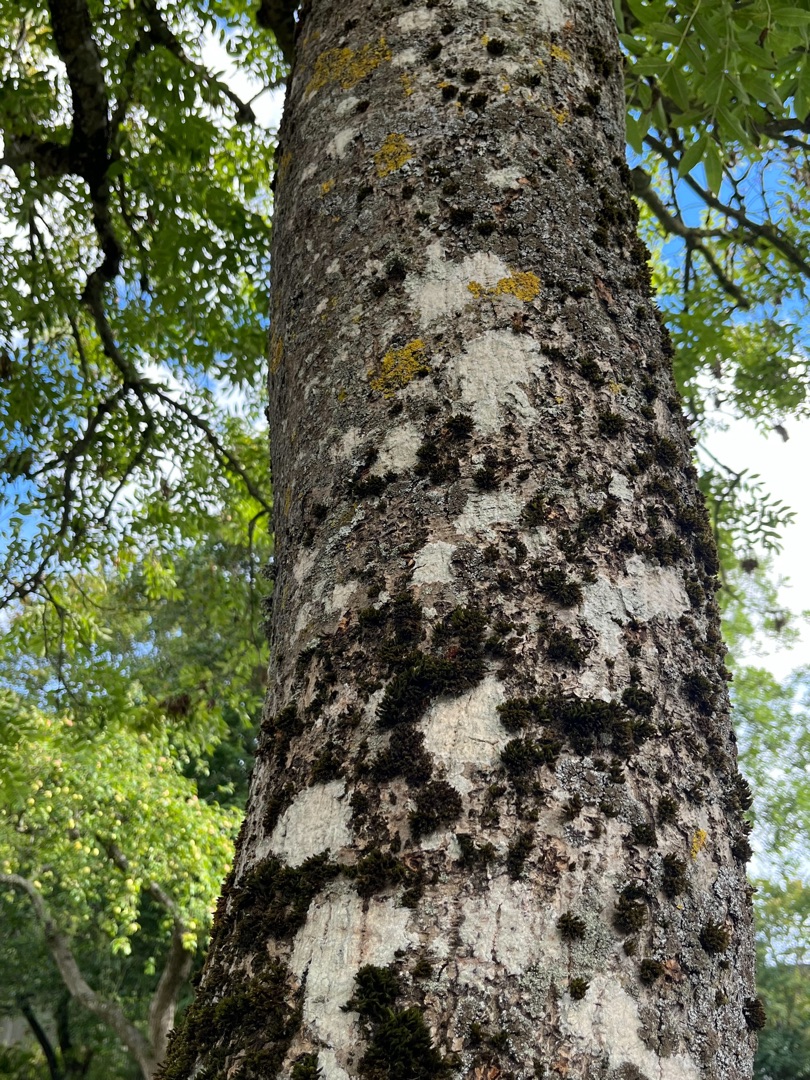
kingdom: Plantae
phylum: Tracheophyta
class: Magnoliopsida
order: Lamiales
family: Oleaceae
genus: Fraxinus
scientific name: Fraxinus excelsior
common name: Ask
